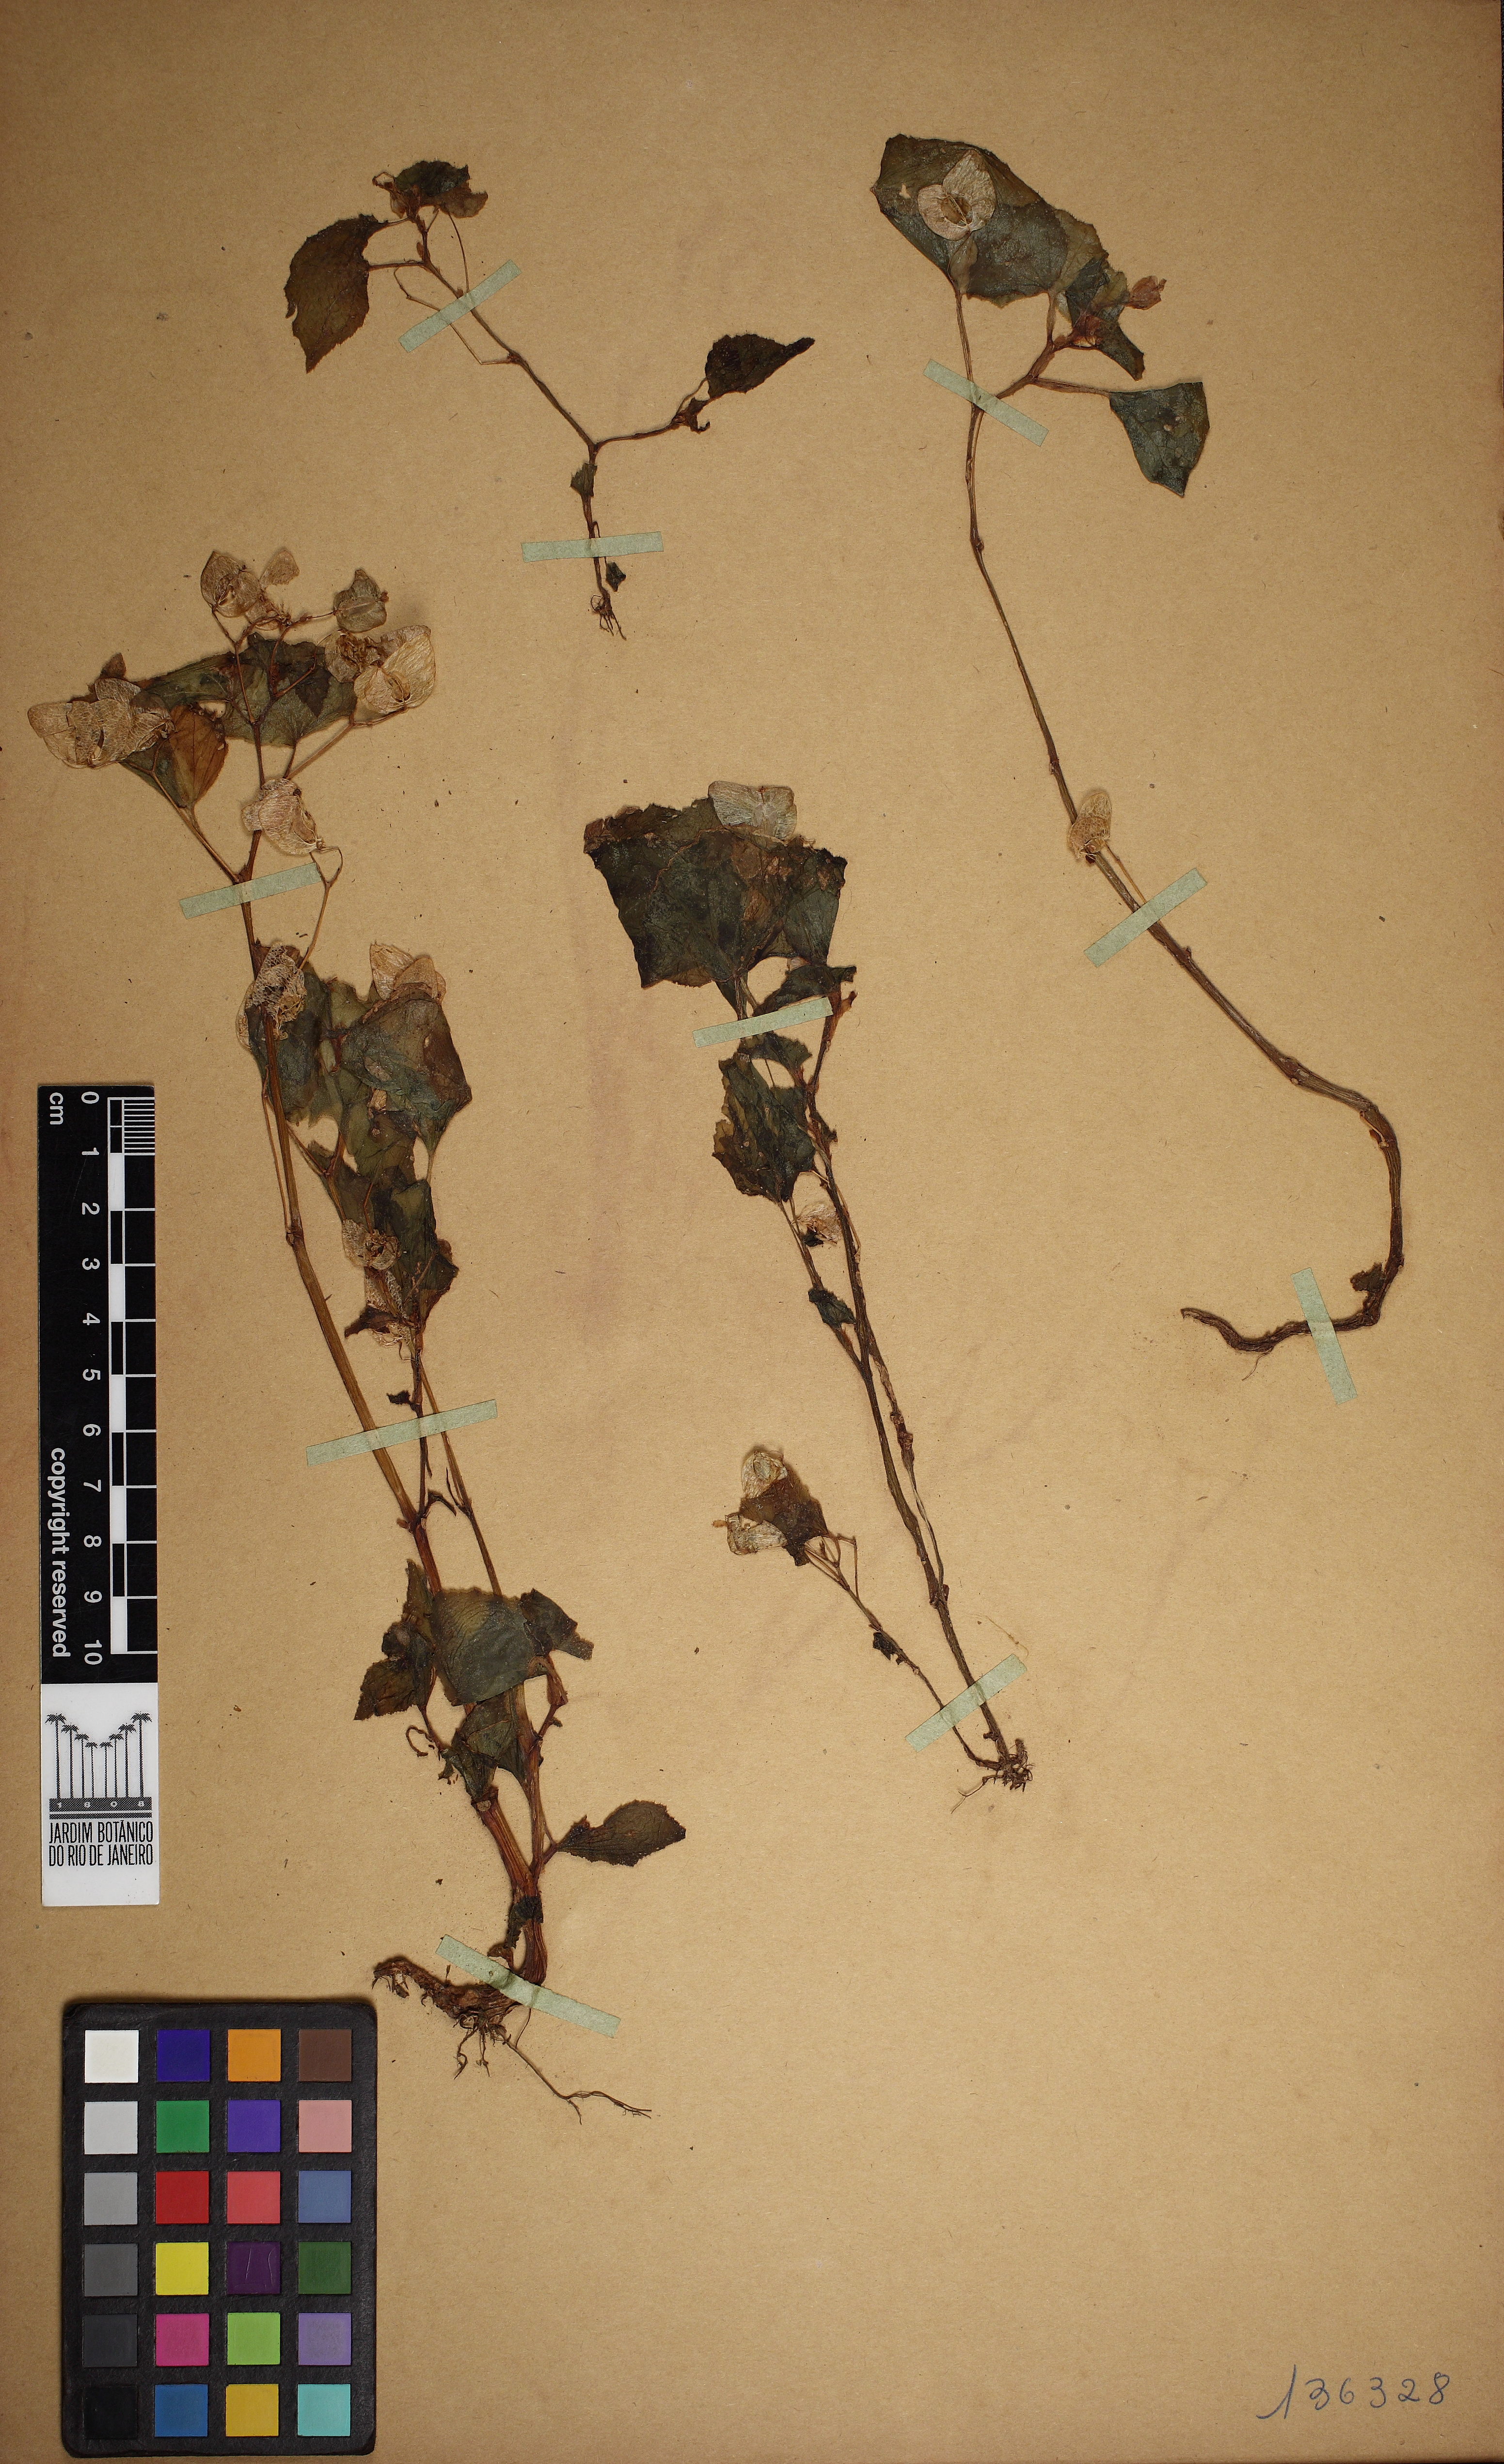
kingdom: Plantae
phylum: Tracheophyta
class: Magnoliopsida
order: Cucurbitales
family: Begoniaceae
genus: Begonia
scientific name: Begonia hirtella
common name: Brazilian begonia
